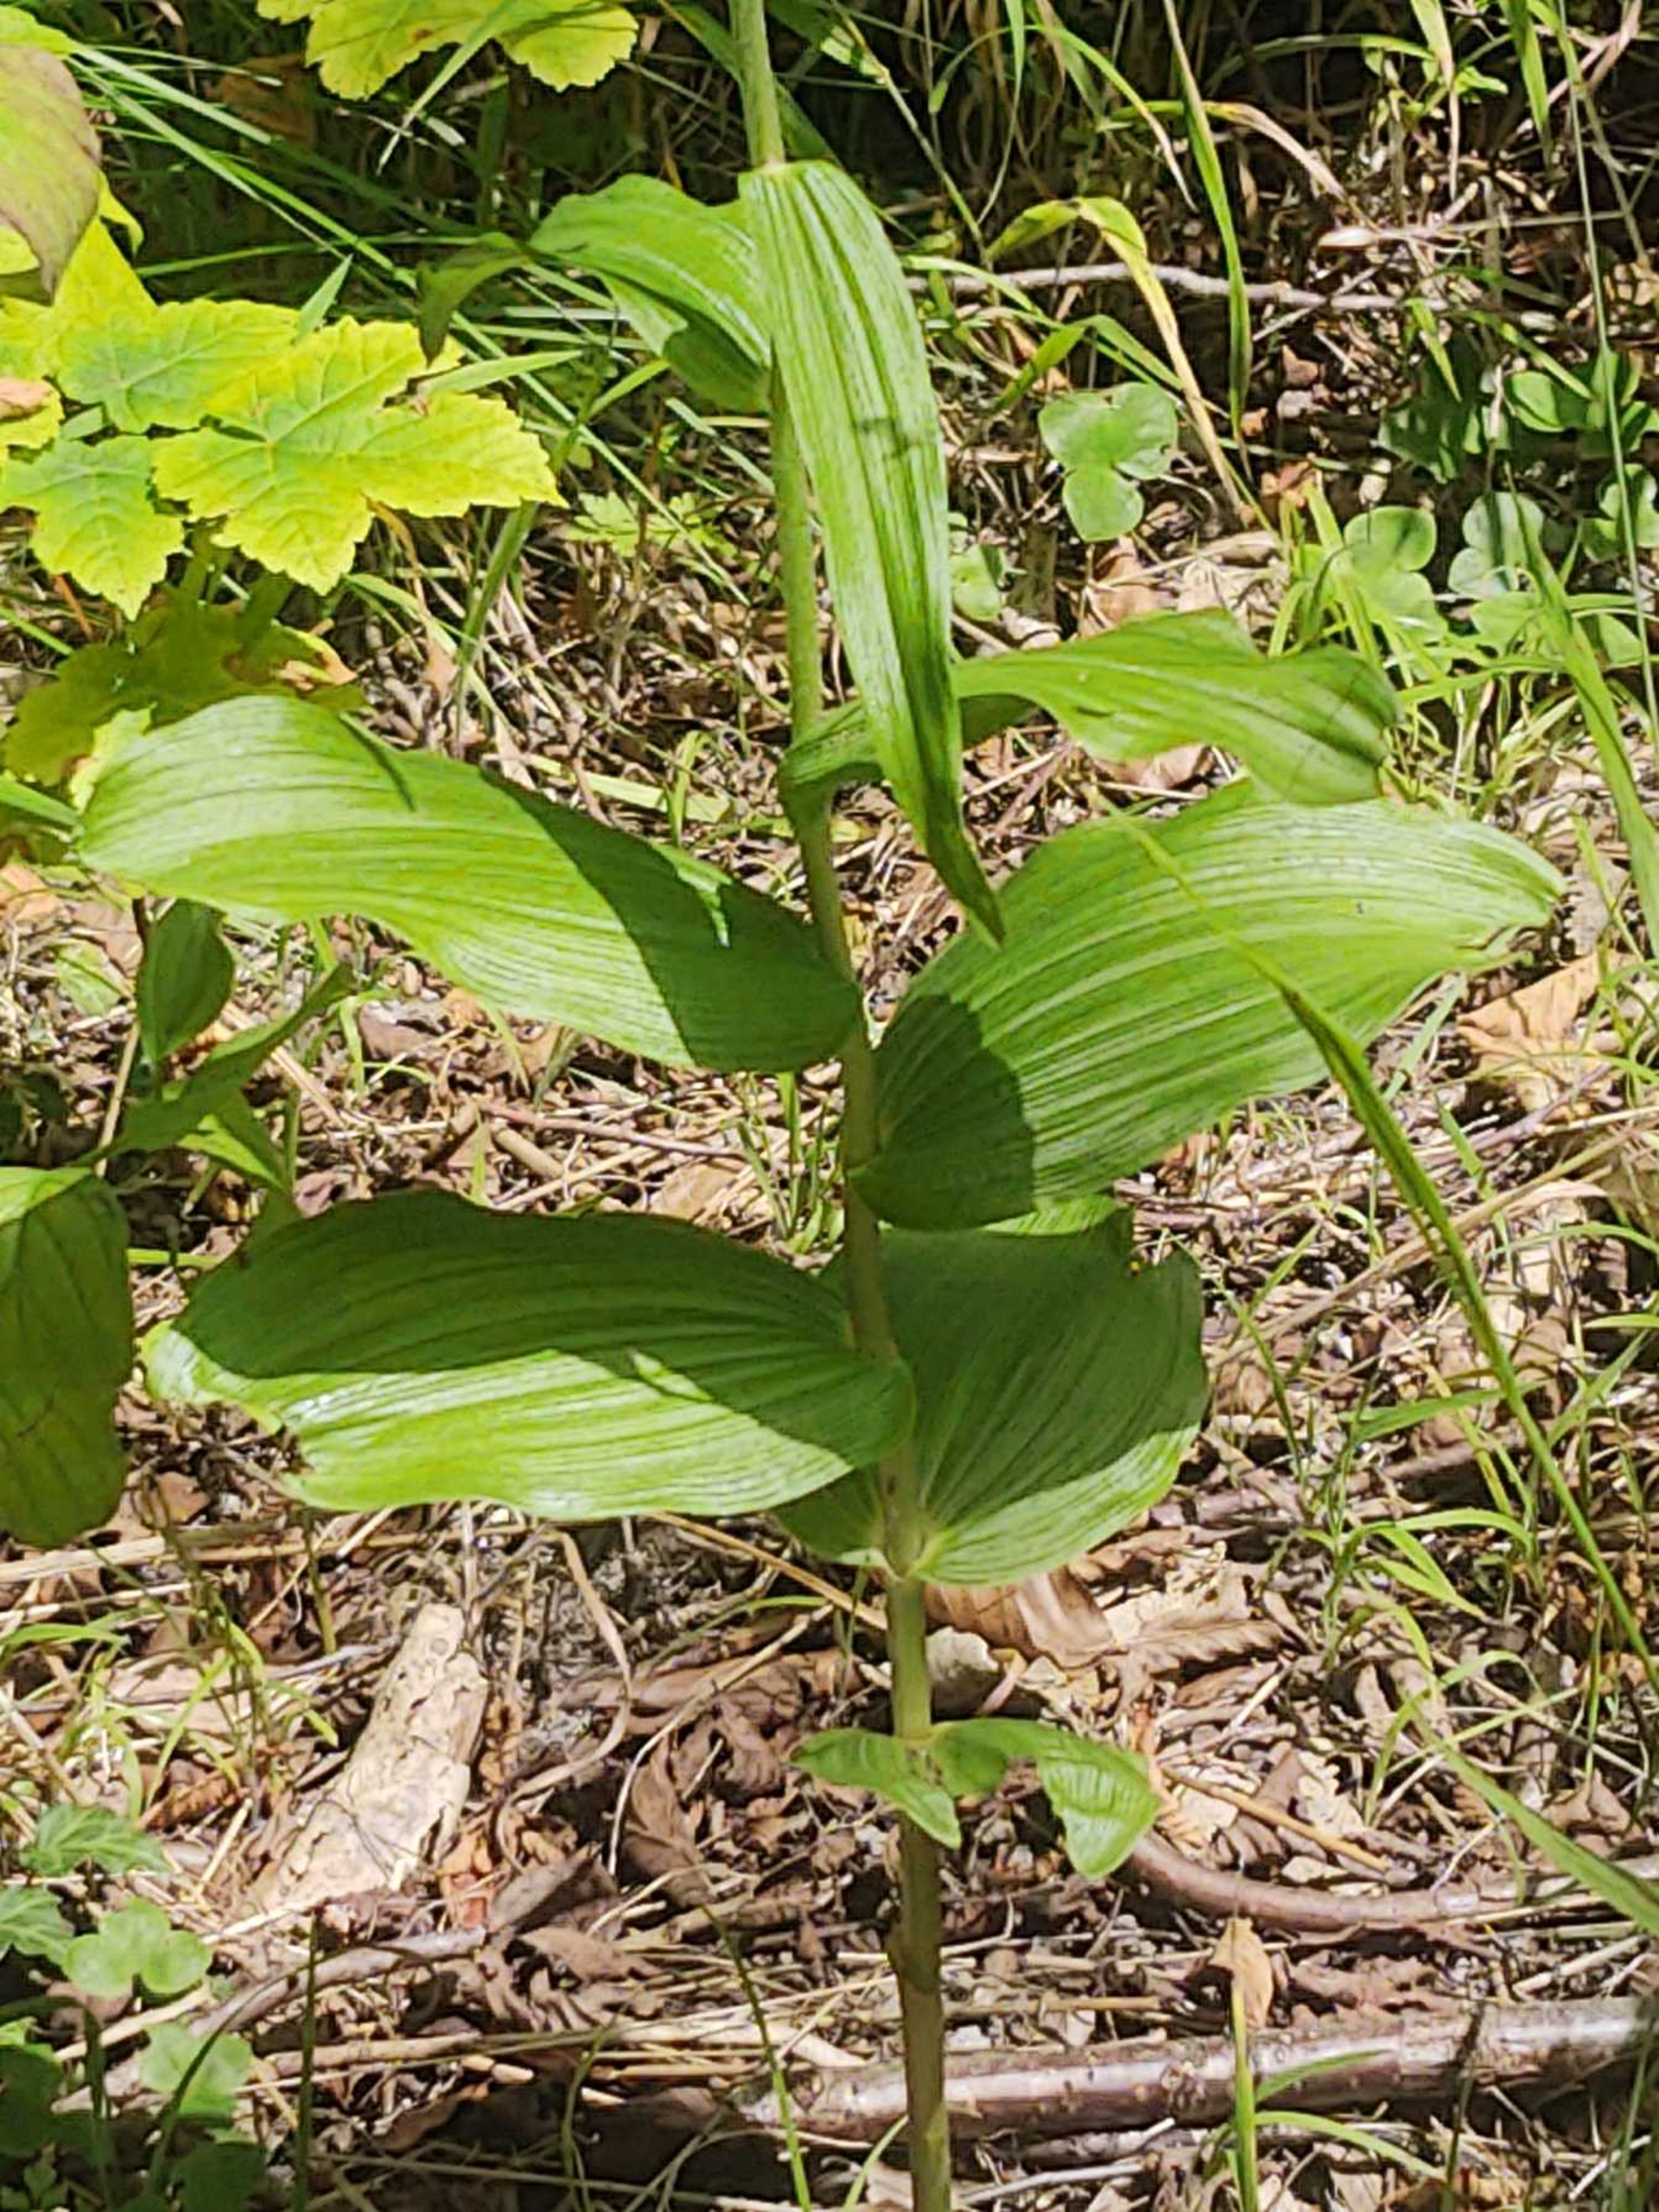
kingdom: Plantae
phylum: Tracheophyta
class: Liliopsida
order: Asparagales
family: Orchidaceae
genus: Epipactis
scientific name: Epipactis helleborine
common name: Skov-hullæbe
